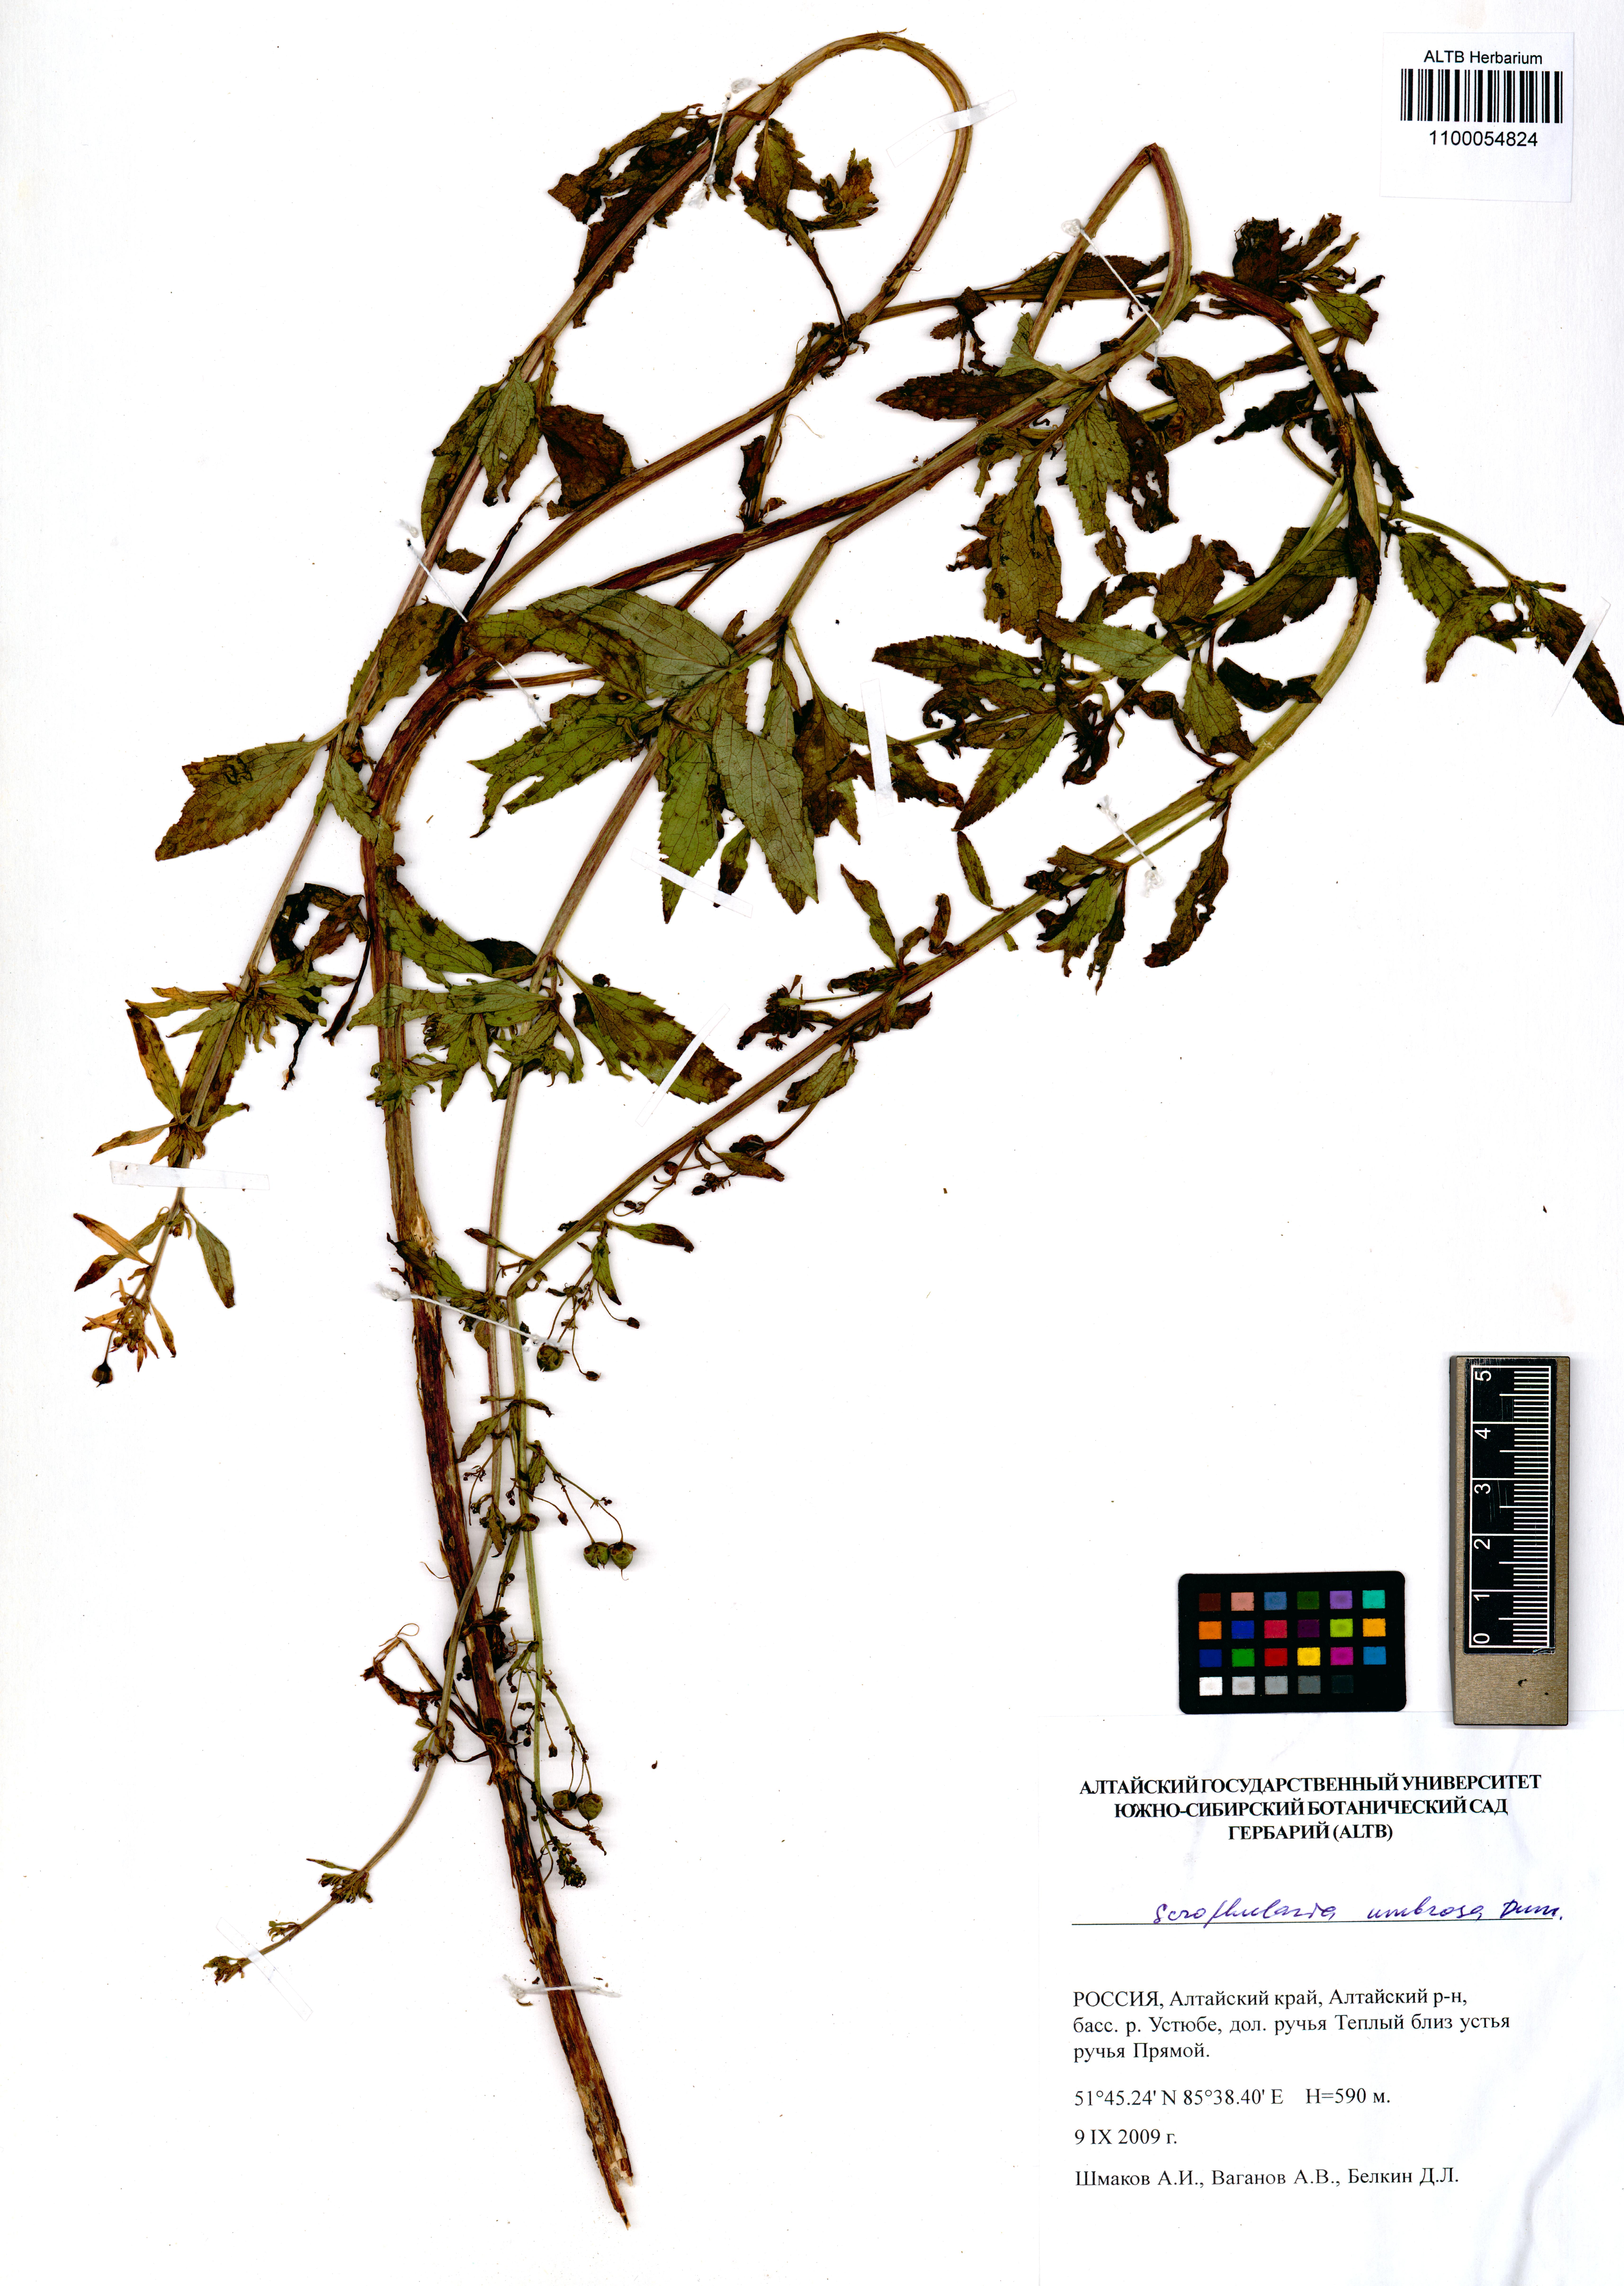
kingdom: Plantae
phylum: Tracheophyta
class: Magnoliopsida
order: Lamiales
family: Scrophulariaceae
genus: Scrophularia
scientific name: Scrophularia umbrosa
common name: Green figwort
